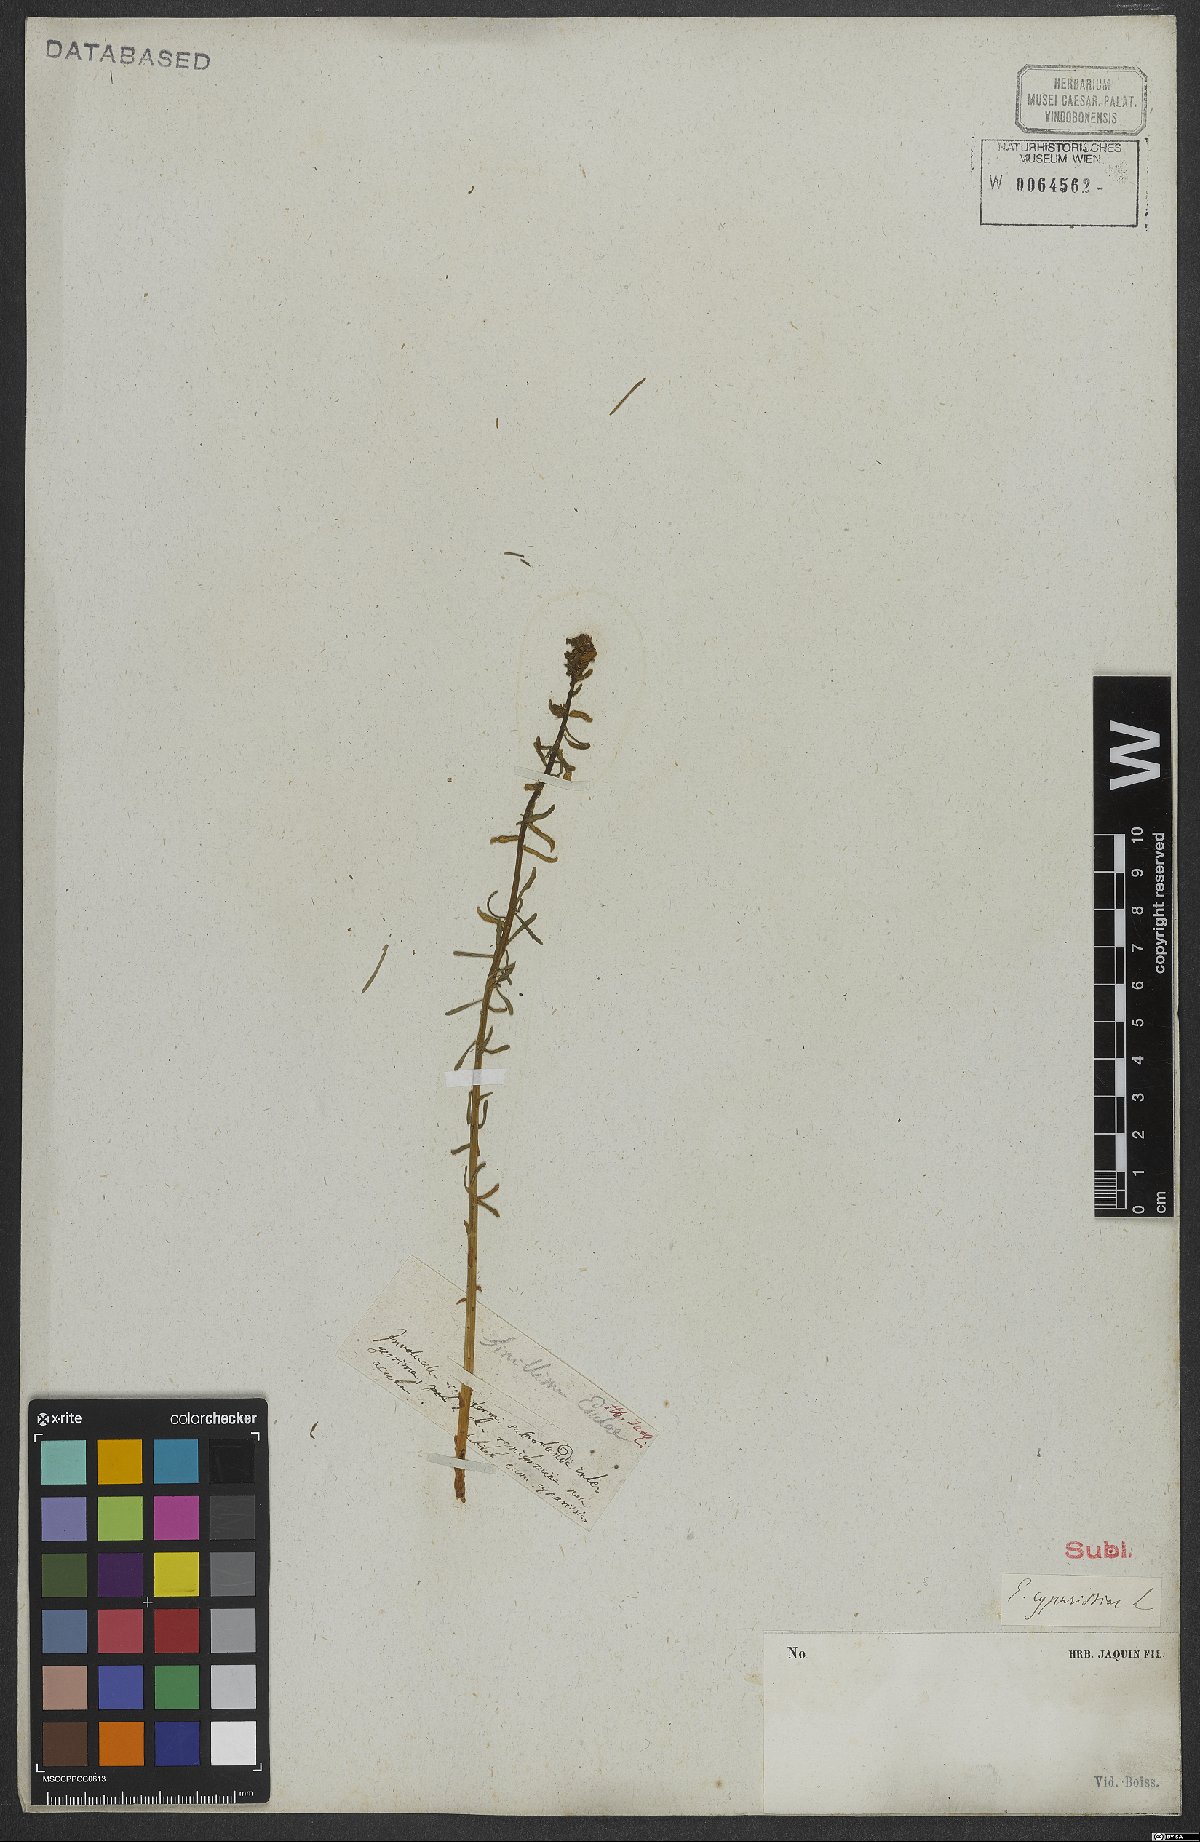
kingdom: Plantae
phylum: Tracheophyta
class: Magnoliopsida
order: Malpighiales
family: Euphorbiaceae
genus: Euphorbia
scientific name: Euphorbia cyparissias
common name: Cypress spurge
